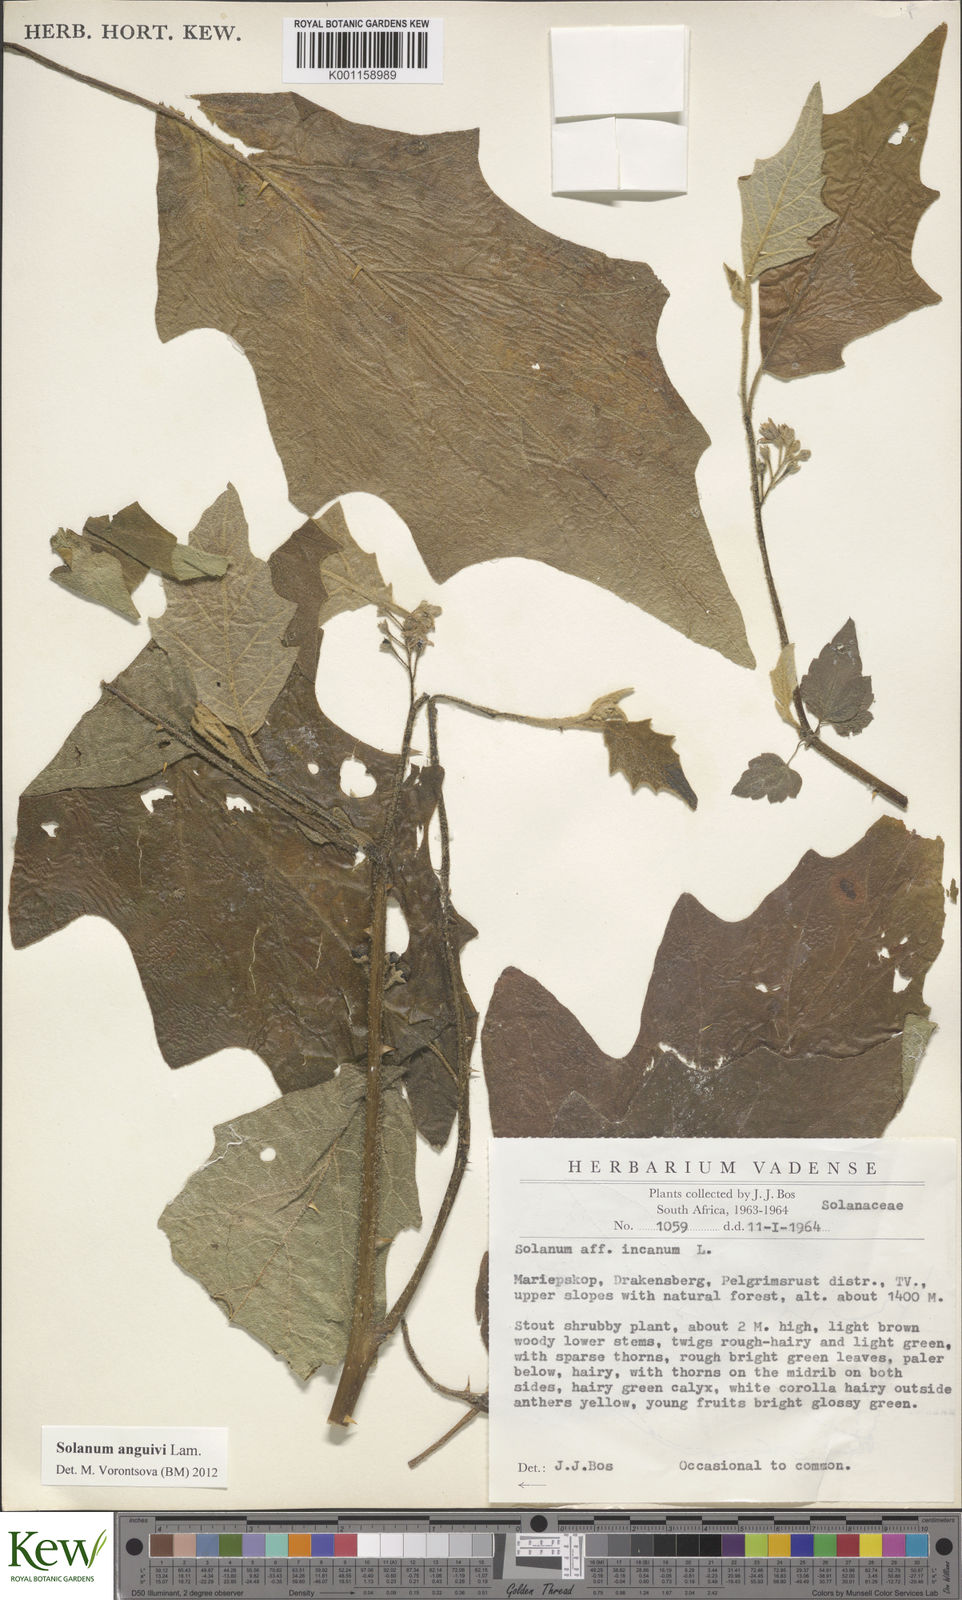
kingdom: Plantae
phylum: Tracheophyta
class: Magnoliopsida
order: Solanales
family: Solanaceae
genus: Solanum
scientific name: Solanum anguivi
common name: Forest bitterberry
